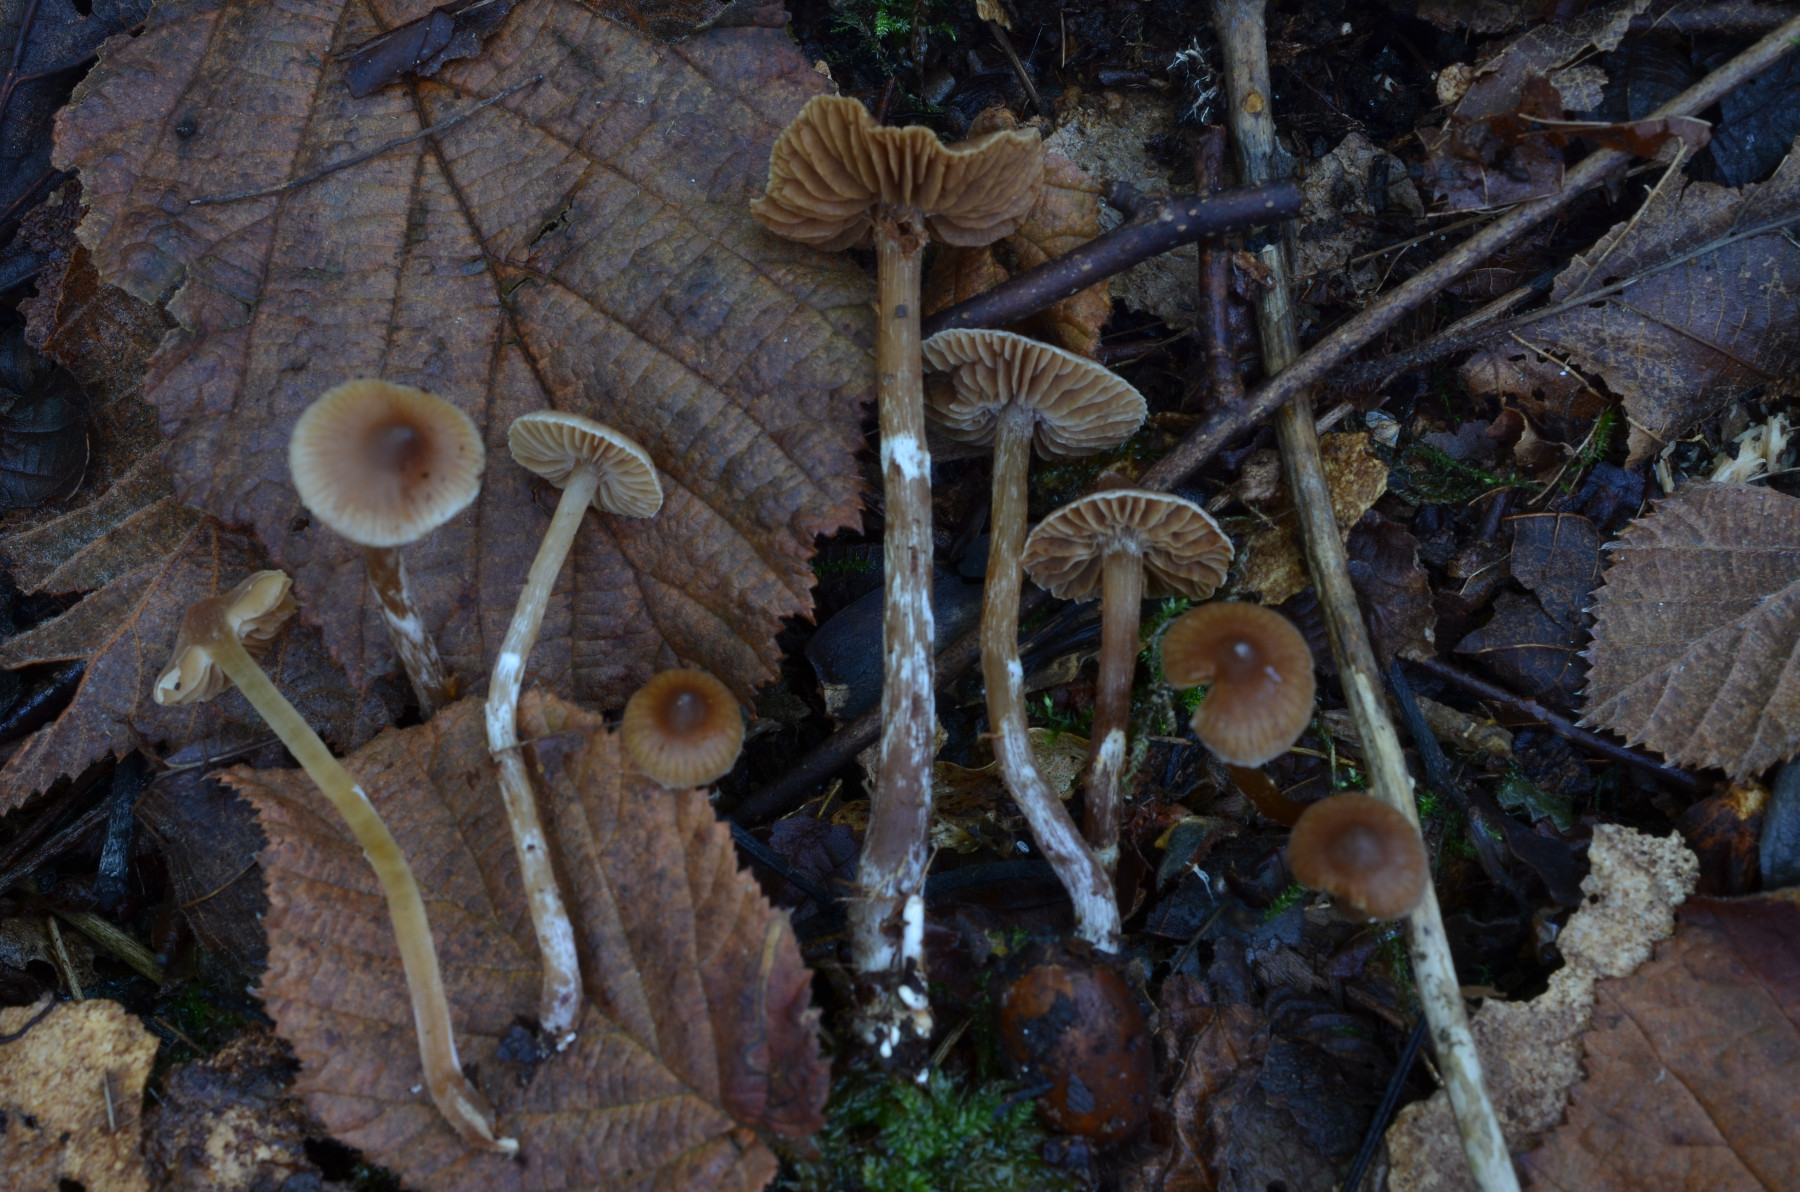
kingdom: Fungi
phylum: Basidiomycota
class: Agaricomycetes
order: Agaricales
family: Cortinariaceae
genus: Cortinarius
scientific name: Cortinarius minusculus
